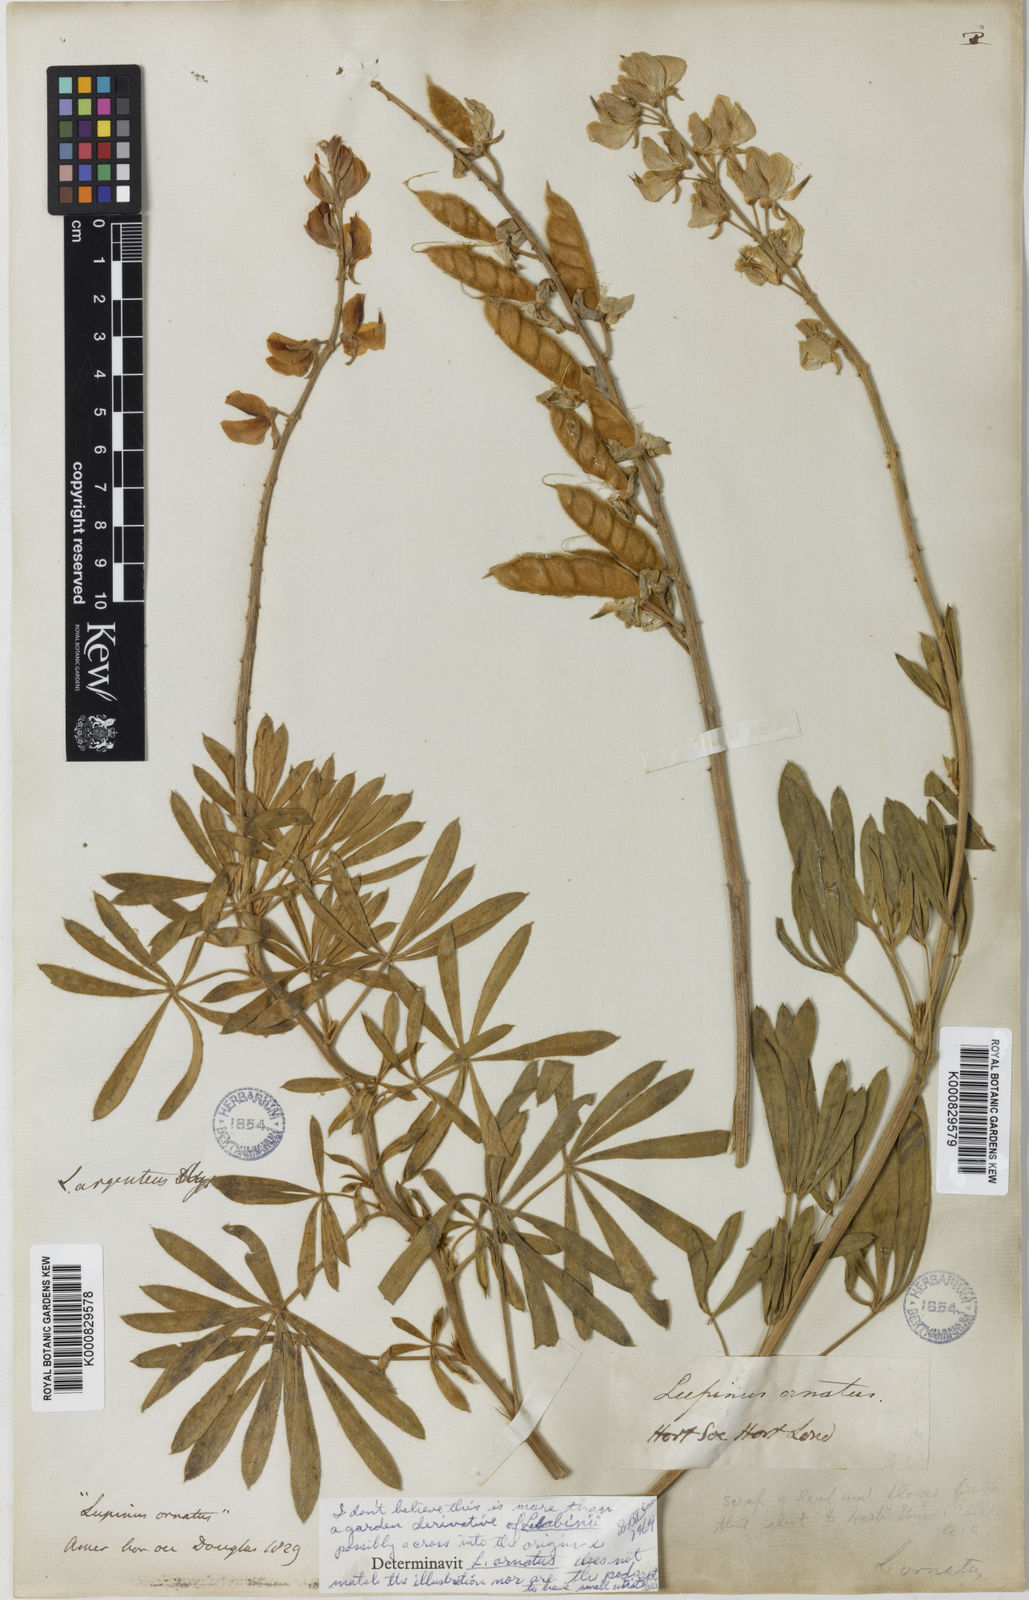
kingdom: Plantae
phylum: Tracheophyta
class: Magnoliopsida
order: Fabales
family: Fabaceae
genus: Lupinus
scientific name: Lupinus ornatus
